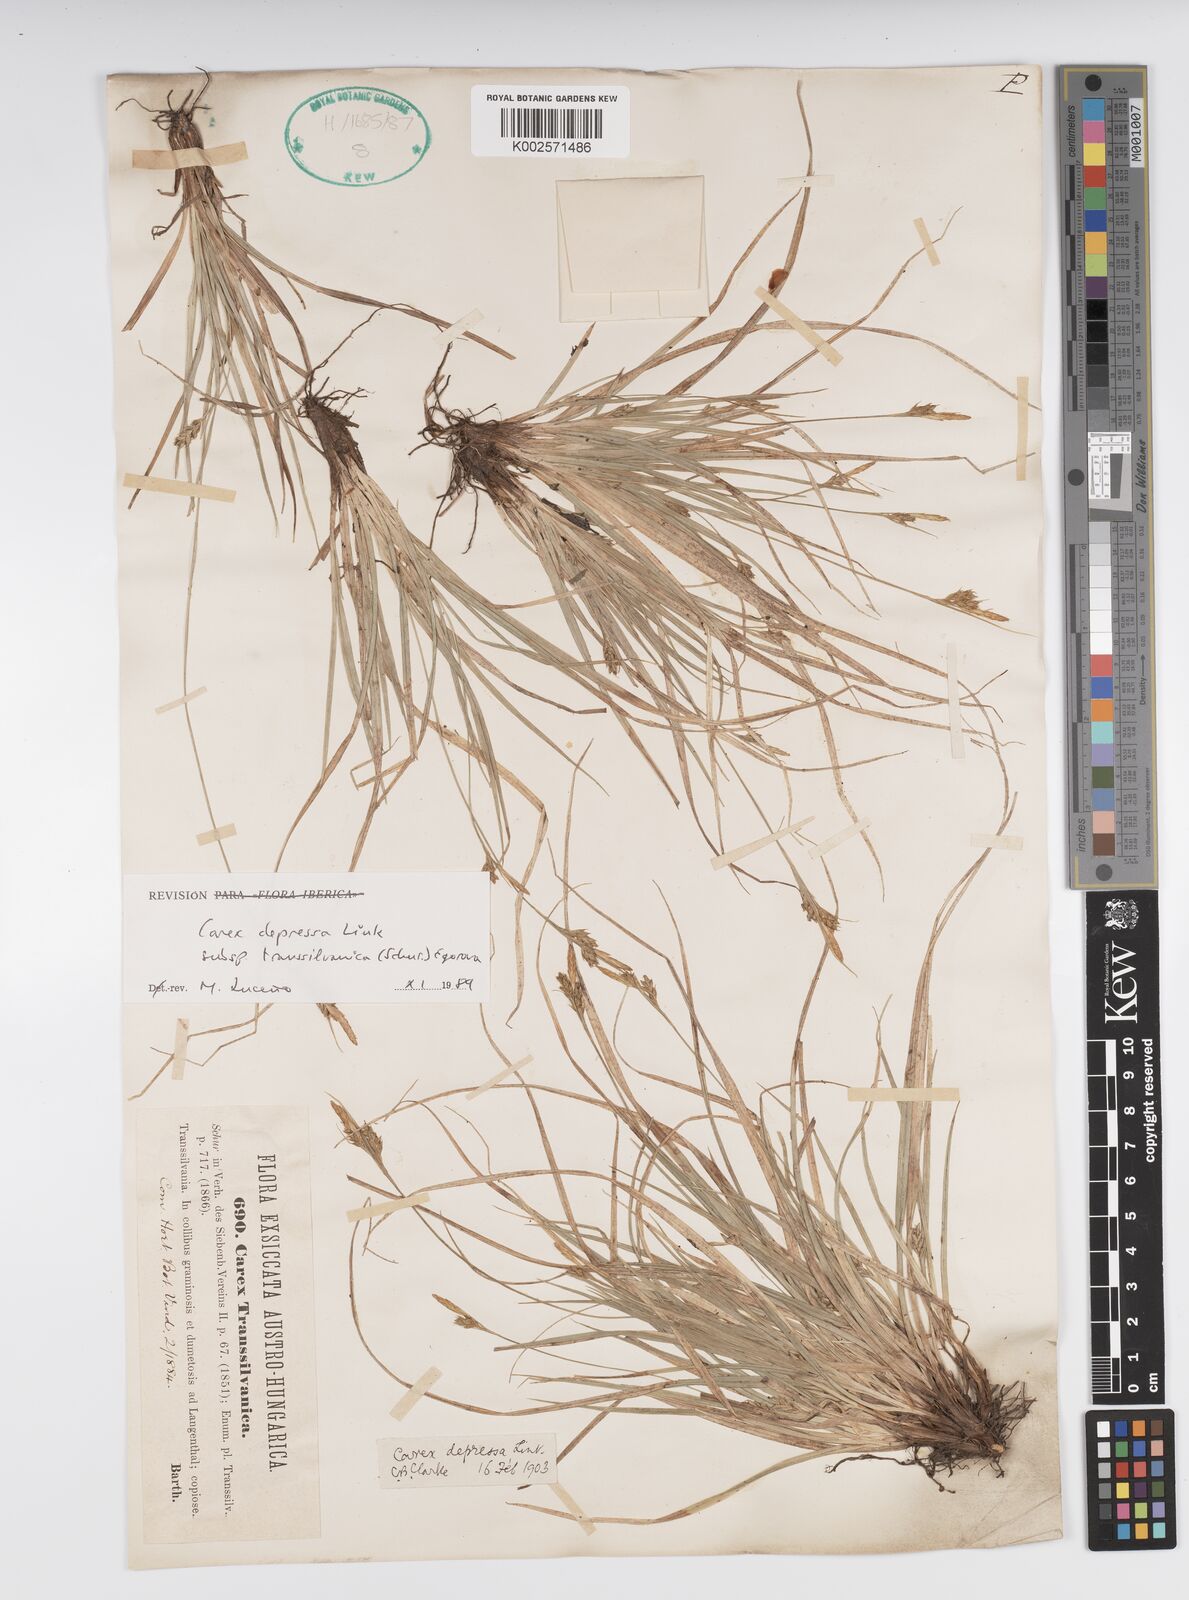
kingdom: Plantae
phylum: Tracheophyta
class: Liliopsida
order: Poales
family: Cyperaceae
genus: Carex
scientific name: Carex depressa
